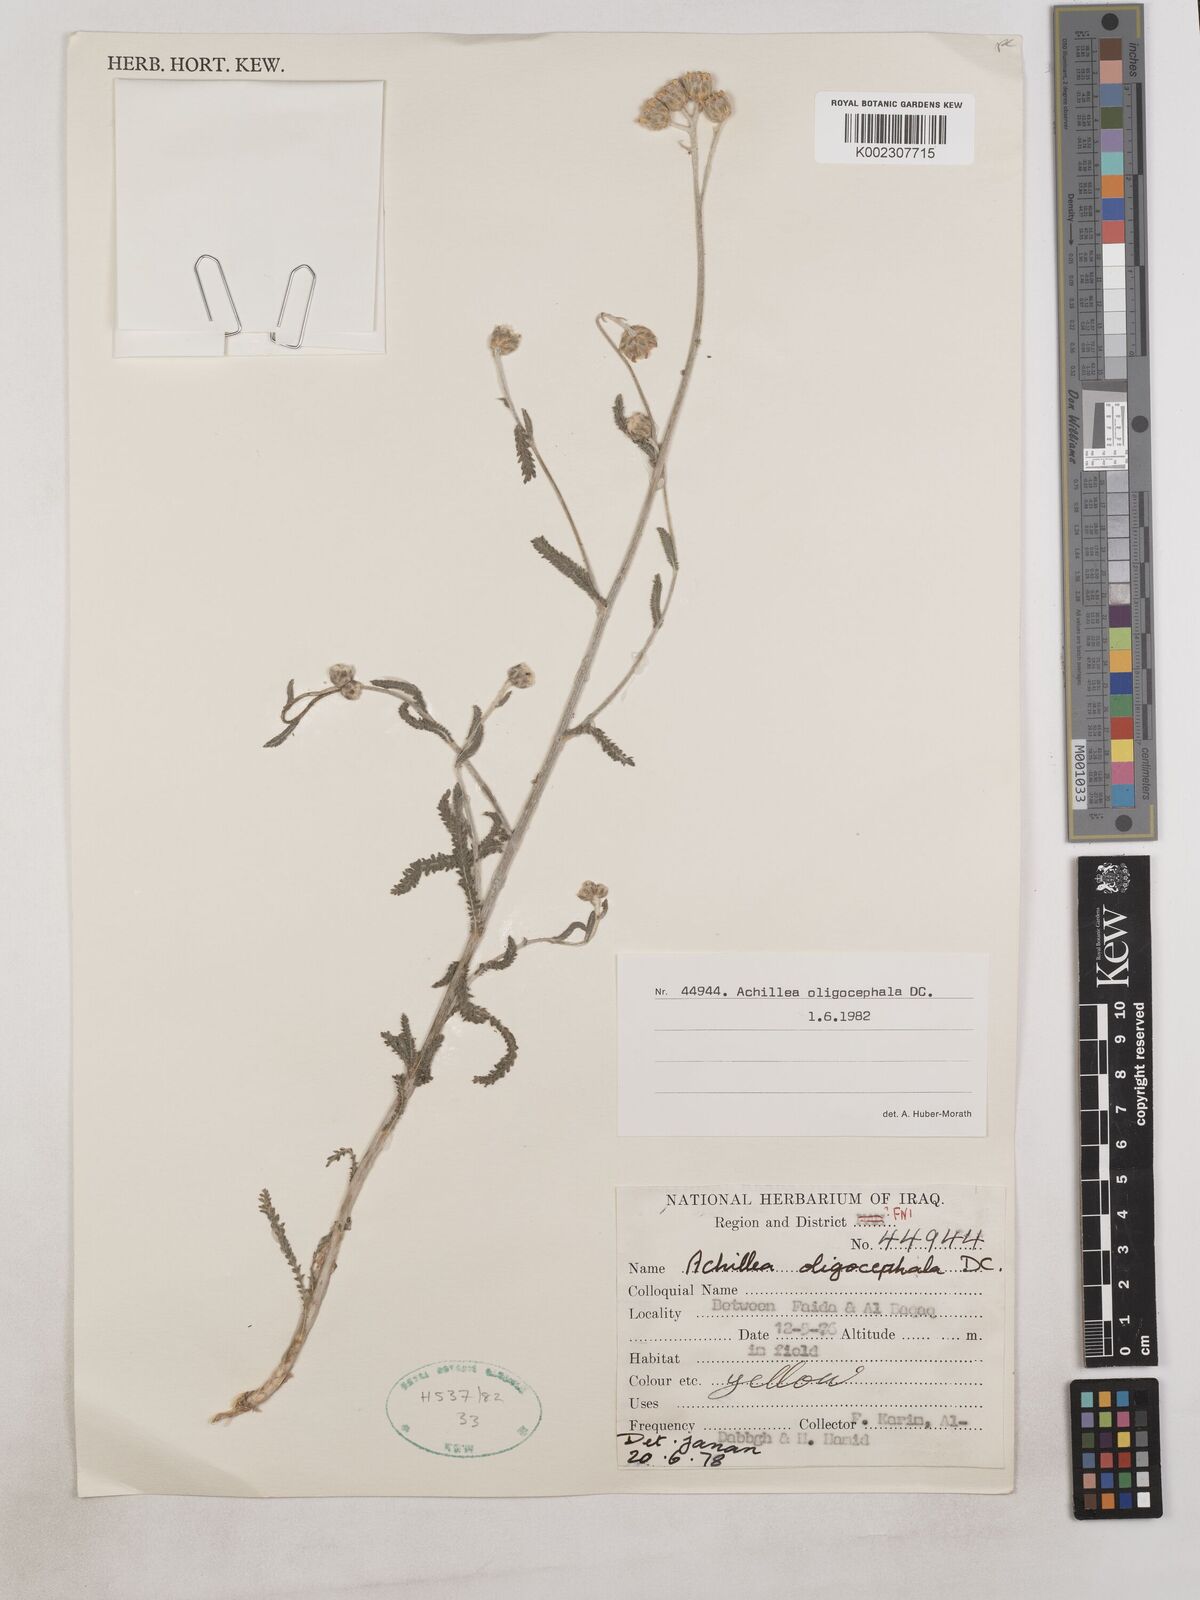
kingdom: Plantae
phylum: Tracheophyta
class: Magnoliopsida
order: Asterales
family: Asteraceae
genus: Achillea
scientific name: Achillea oligocephala
